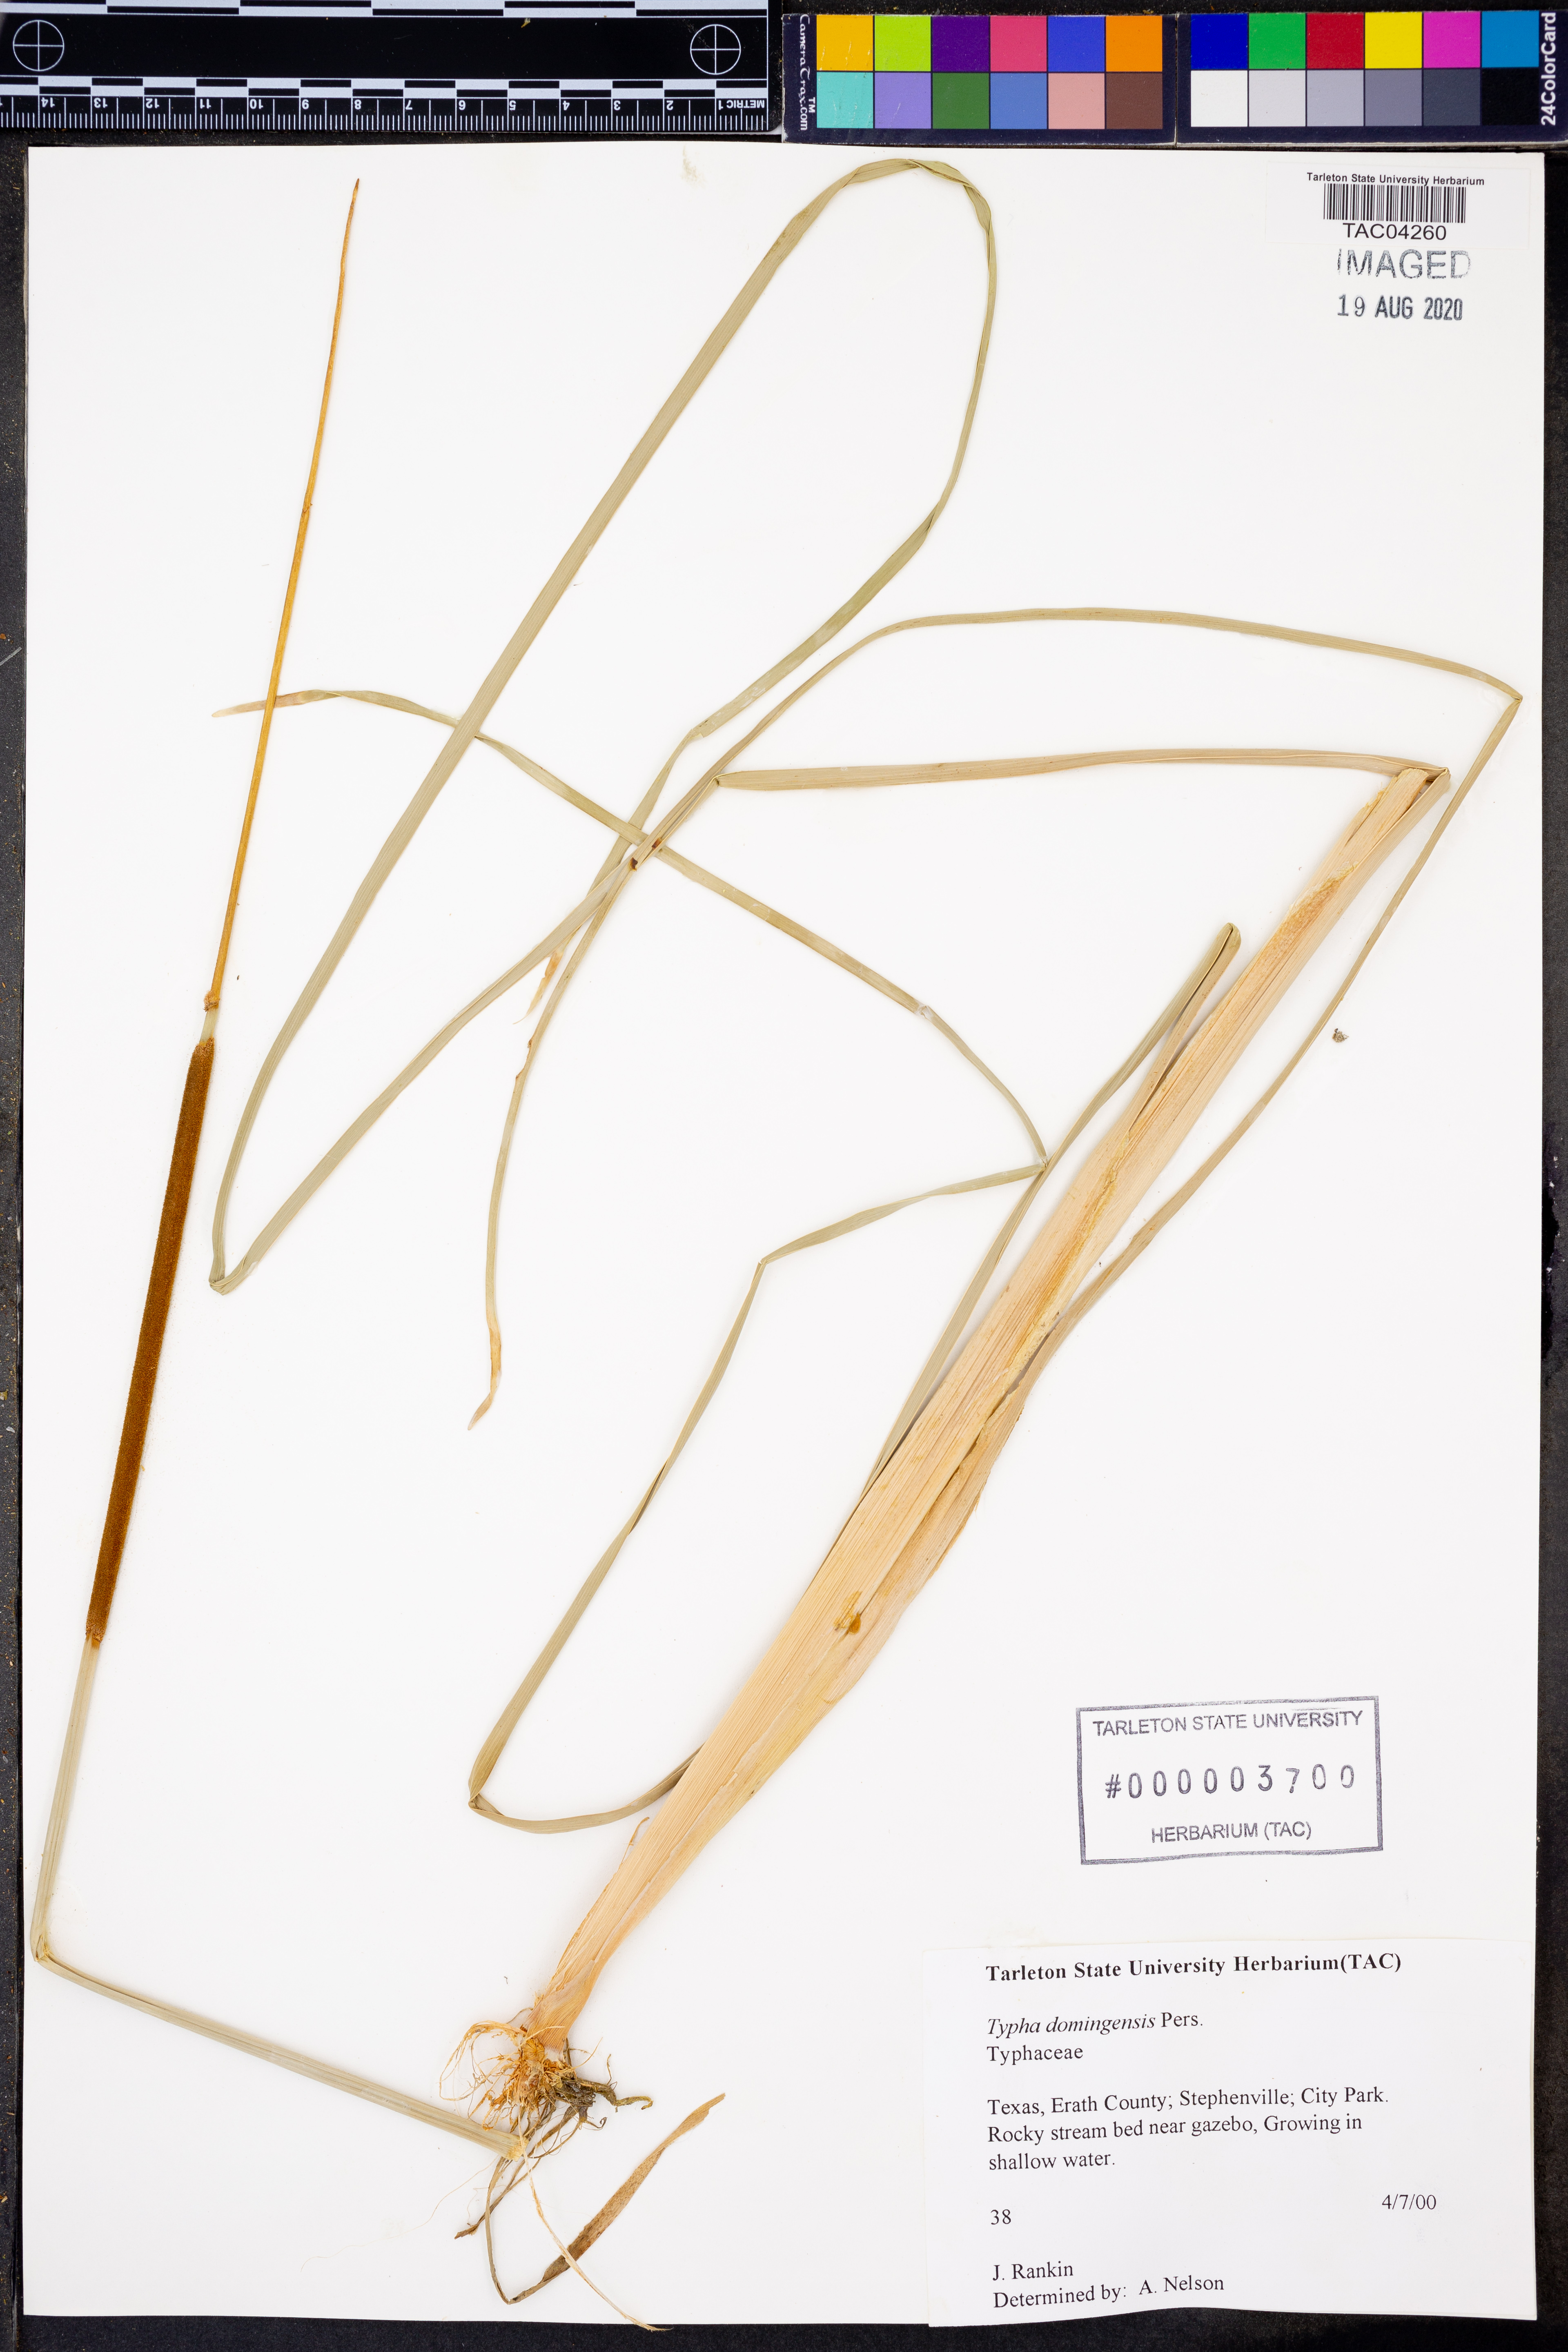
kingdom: Plantae
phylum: Tracheophyta
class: Liliopsida
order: Poales
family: Typhaceae
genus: Typha
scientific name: Typha domingensis
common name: Southern cattail
